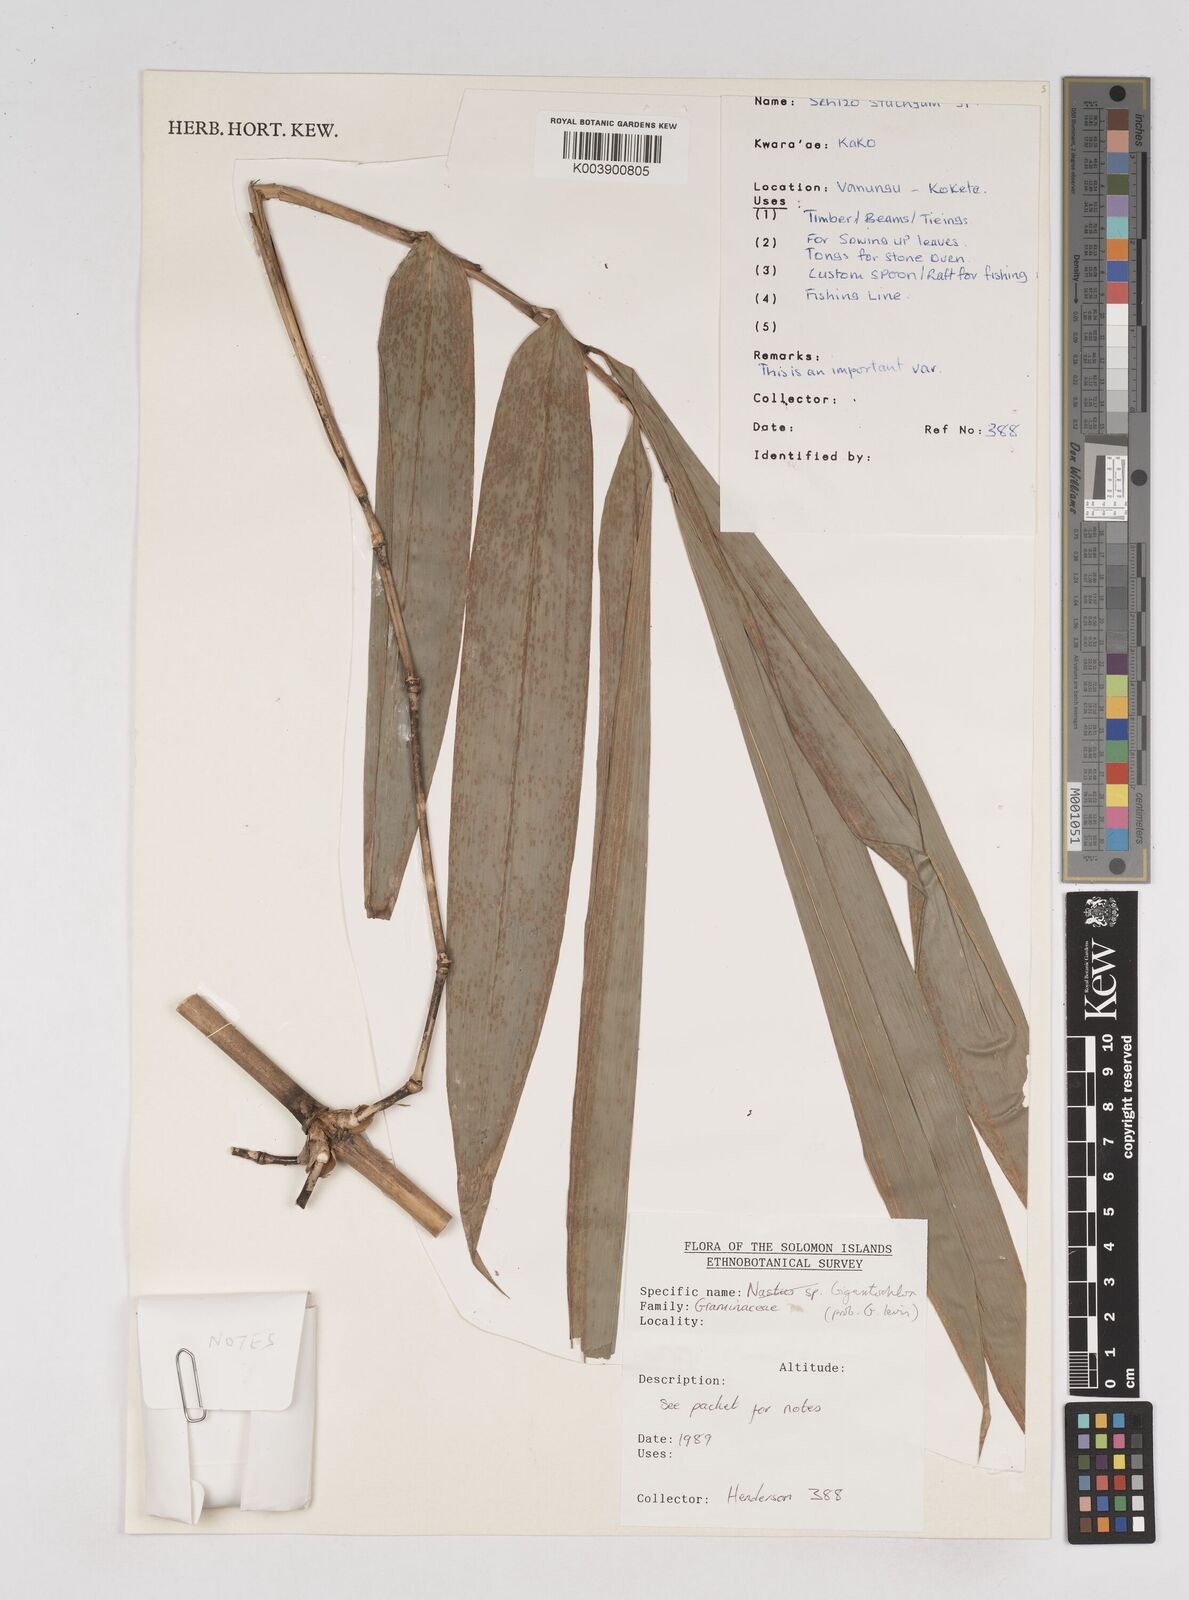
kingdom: Plantae
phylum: Tracheophyta
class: Liliopsida
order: Poales
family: Poaceae
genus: Gigantochloa
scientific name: Gigantochloa
